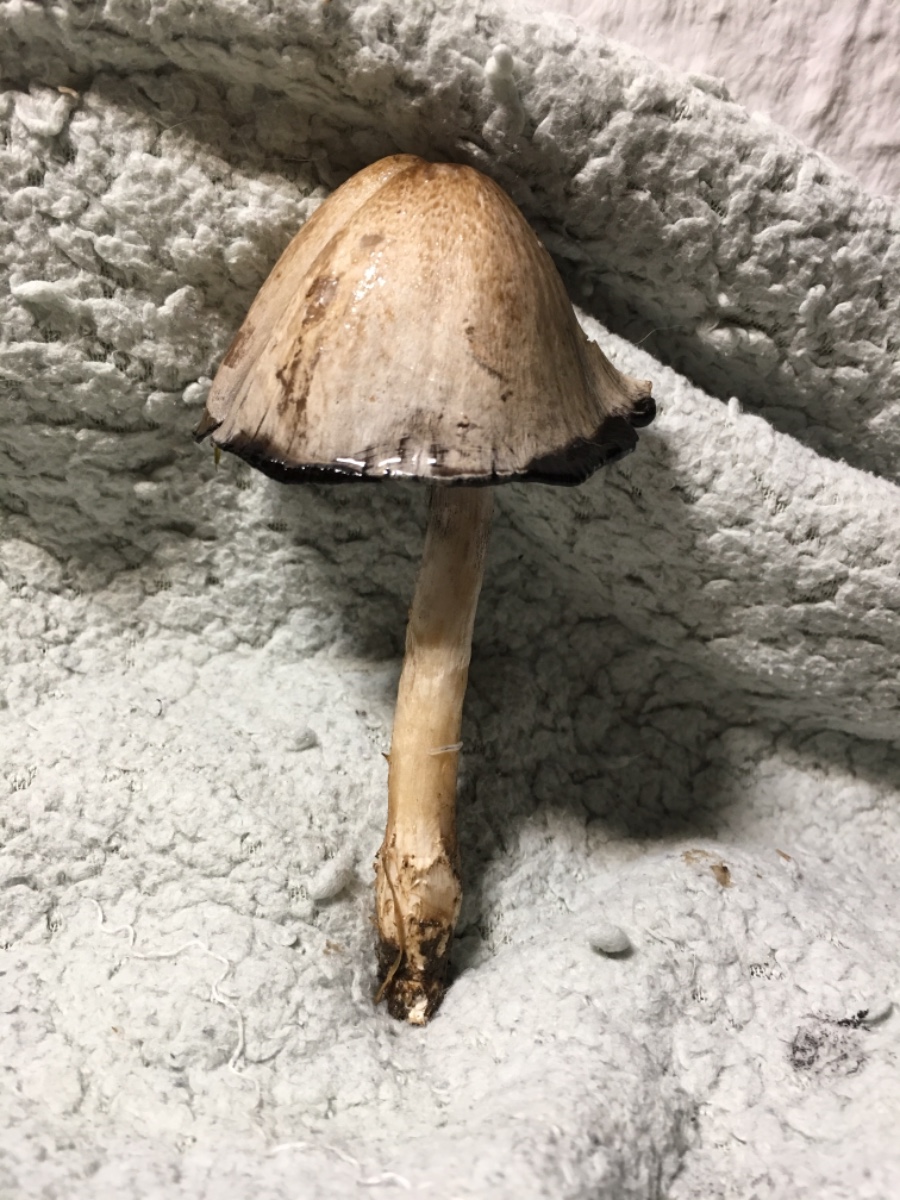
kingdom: Fungi
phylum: Basidiomycota
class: Agaricomycetes
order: Agaricales
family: Psathyrellaceae
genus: Coprinopsis
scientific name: Coprinopsis atramentaria
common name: almindelig blækhat
